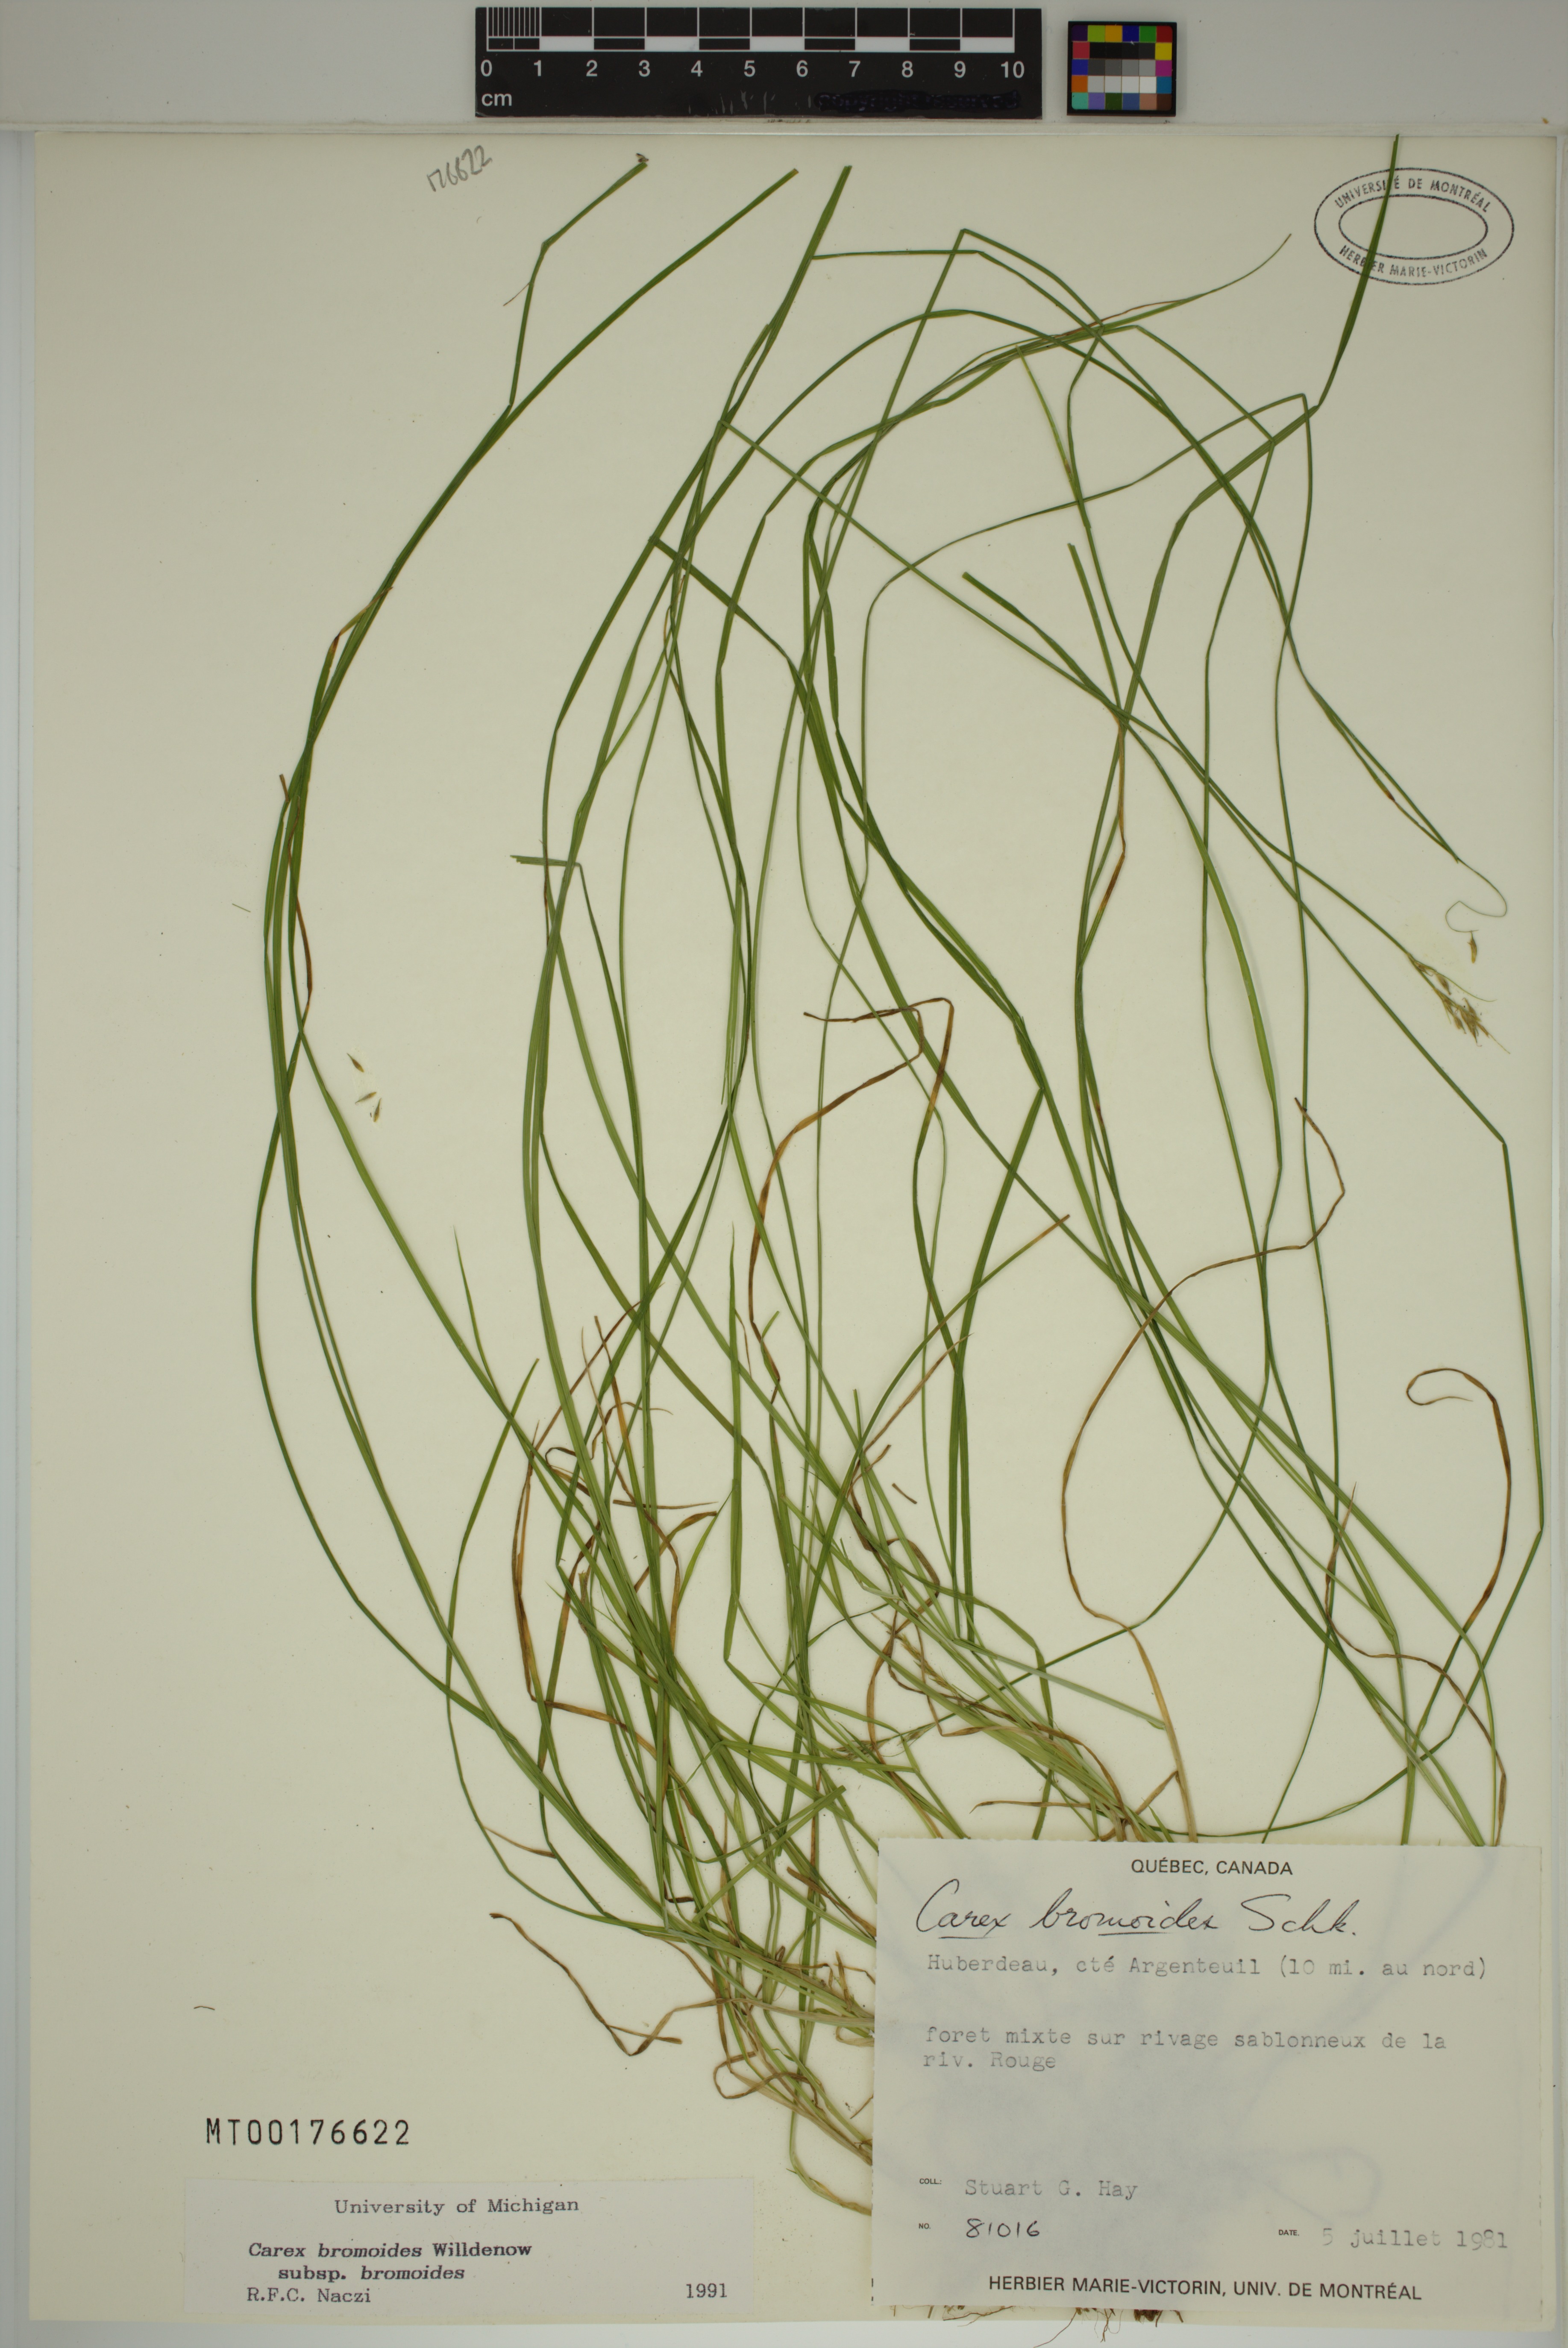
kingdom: Plantae
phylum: Tracheophyta
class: Liliopsida
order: Poales
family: Cyperaceae
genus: Carex
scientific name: Carex bromoides
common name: Brome hummock sedge
